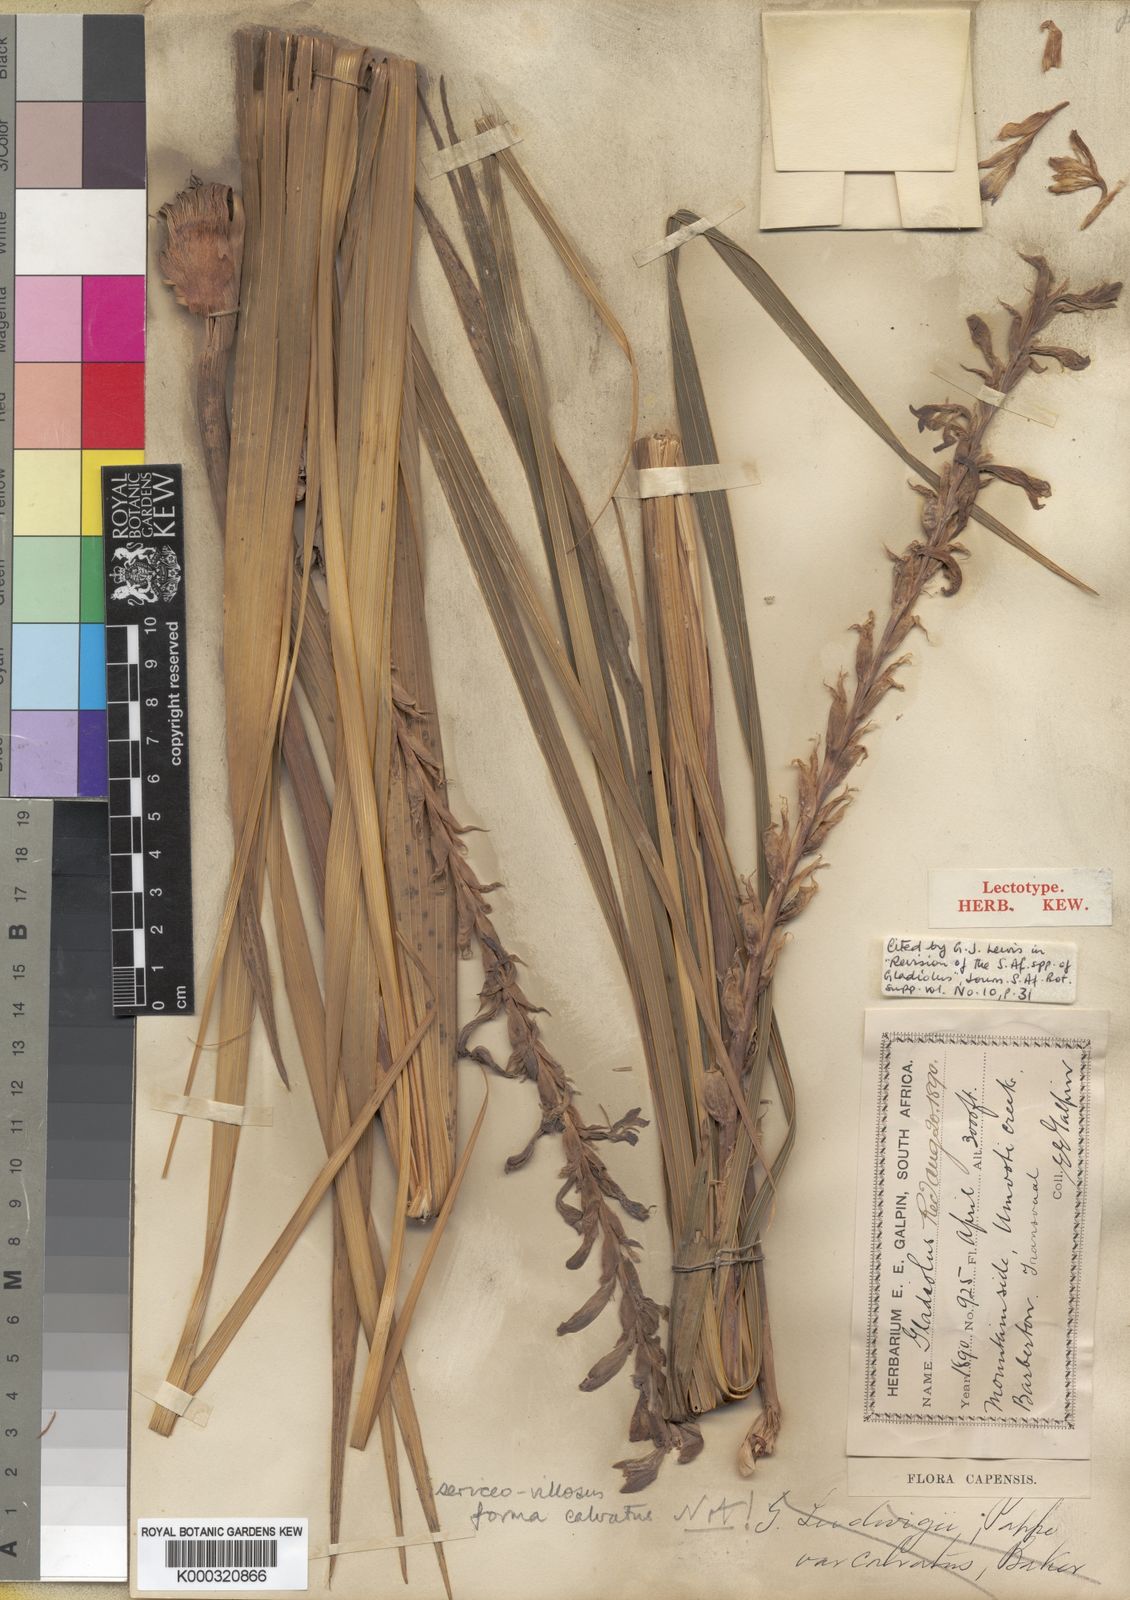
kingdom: Plantae
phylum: Tracheophyta
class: Liliopsida
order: Asparagales
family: Iridaceae
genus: Gladiolus
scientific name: Gladiolus sericeovillosus
